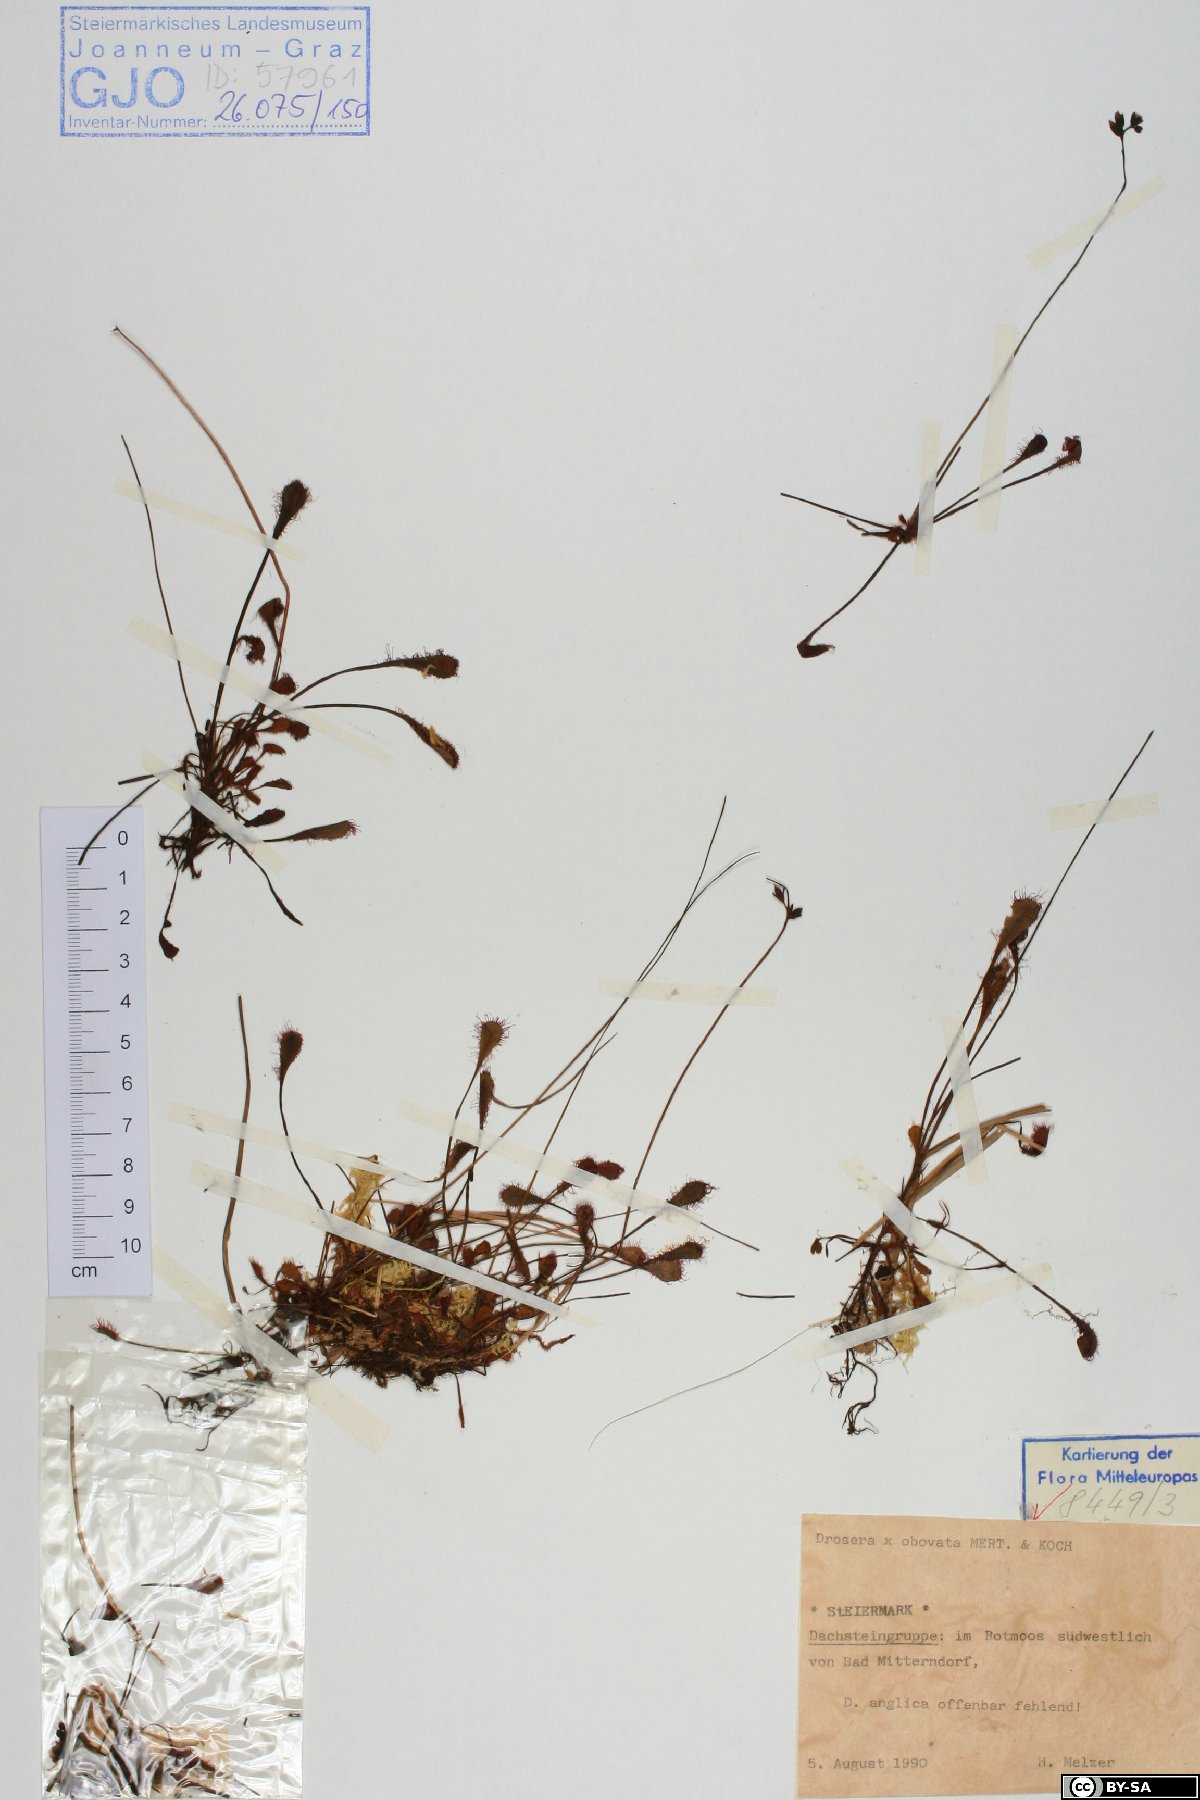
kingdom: Plantae
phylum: Tracheophyta
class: Magnoliopsida
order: Caryophyllales
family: Droseraceae
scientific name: Droseraceae
